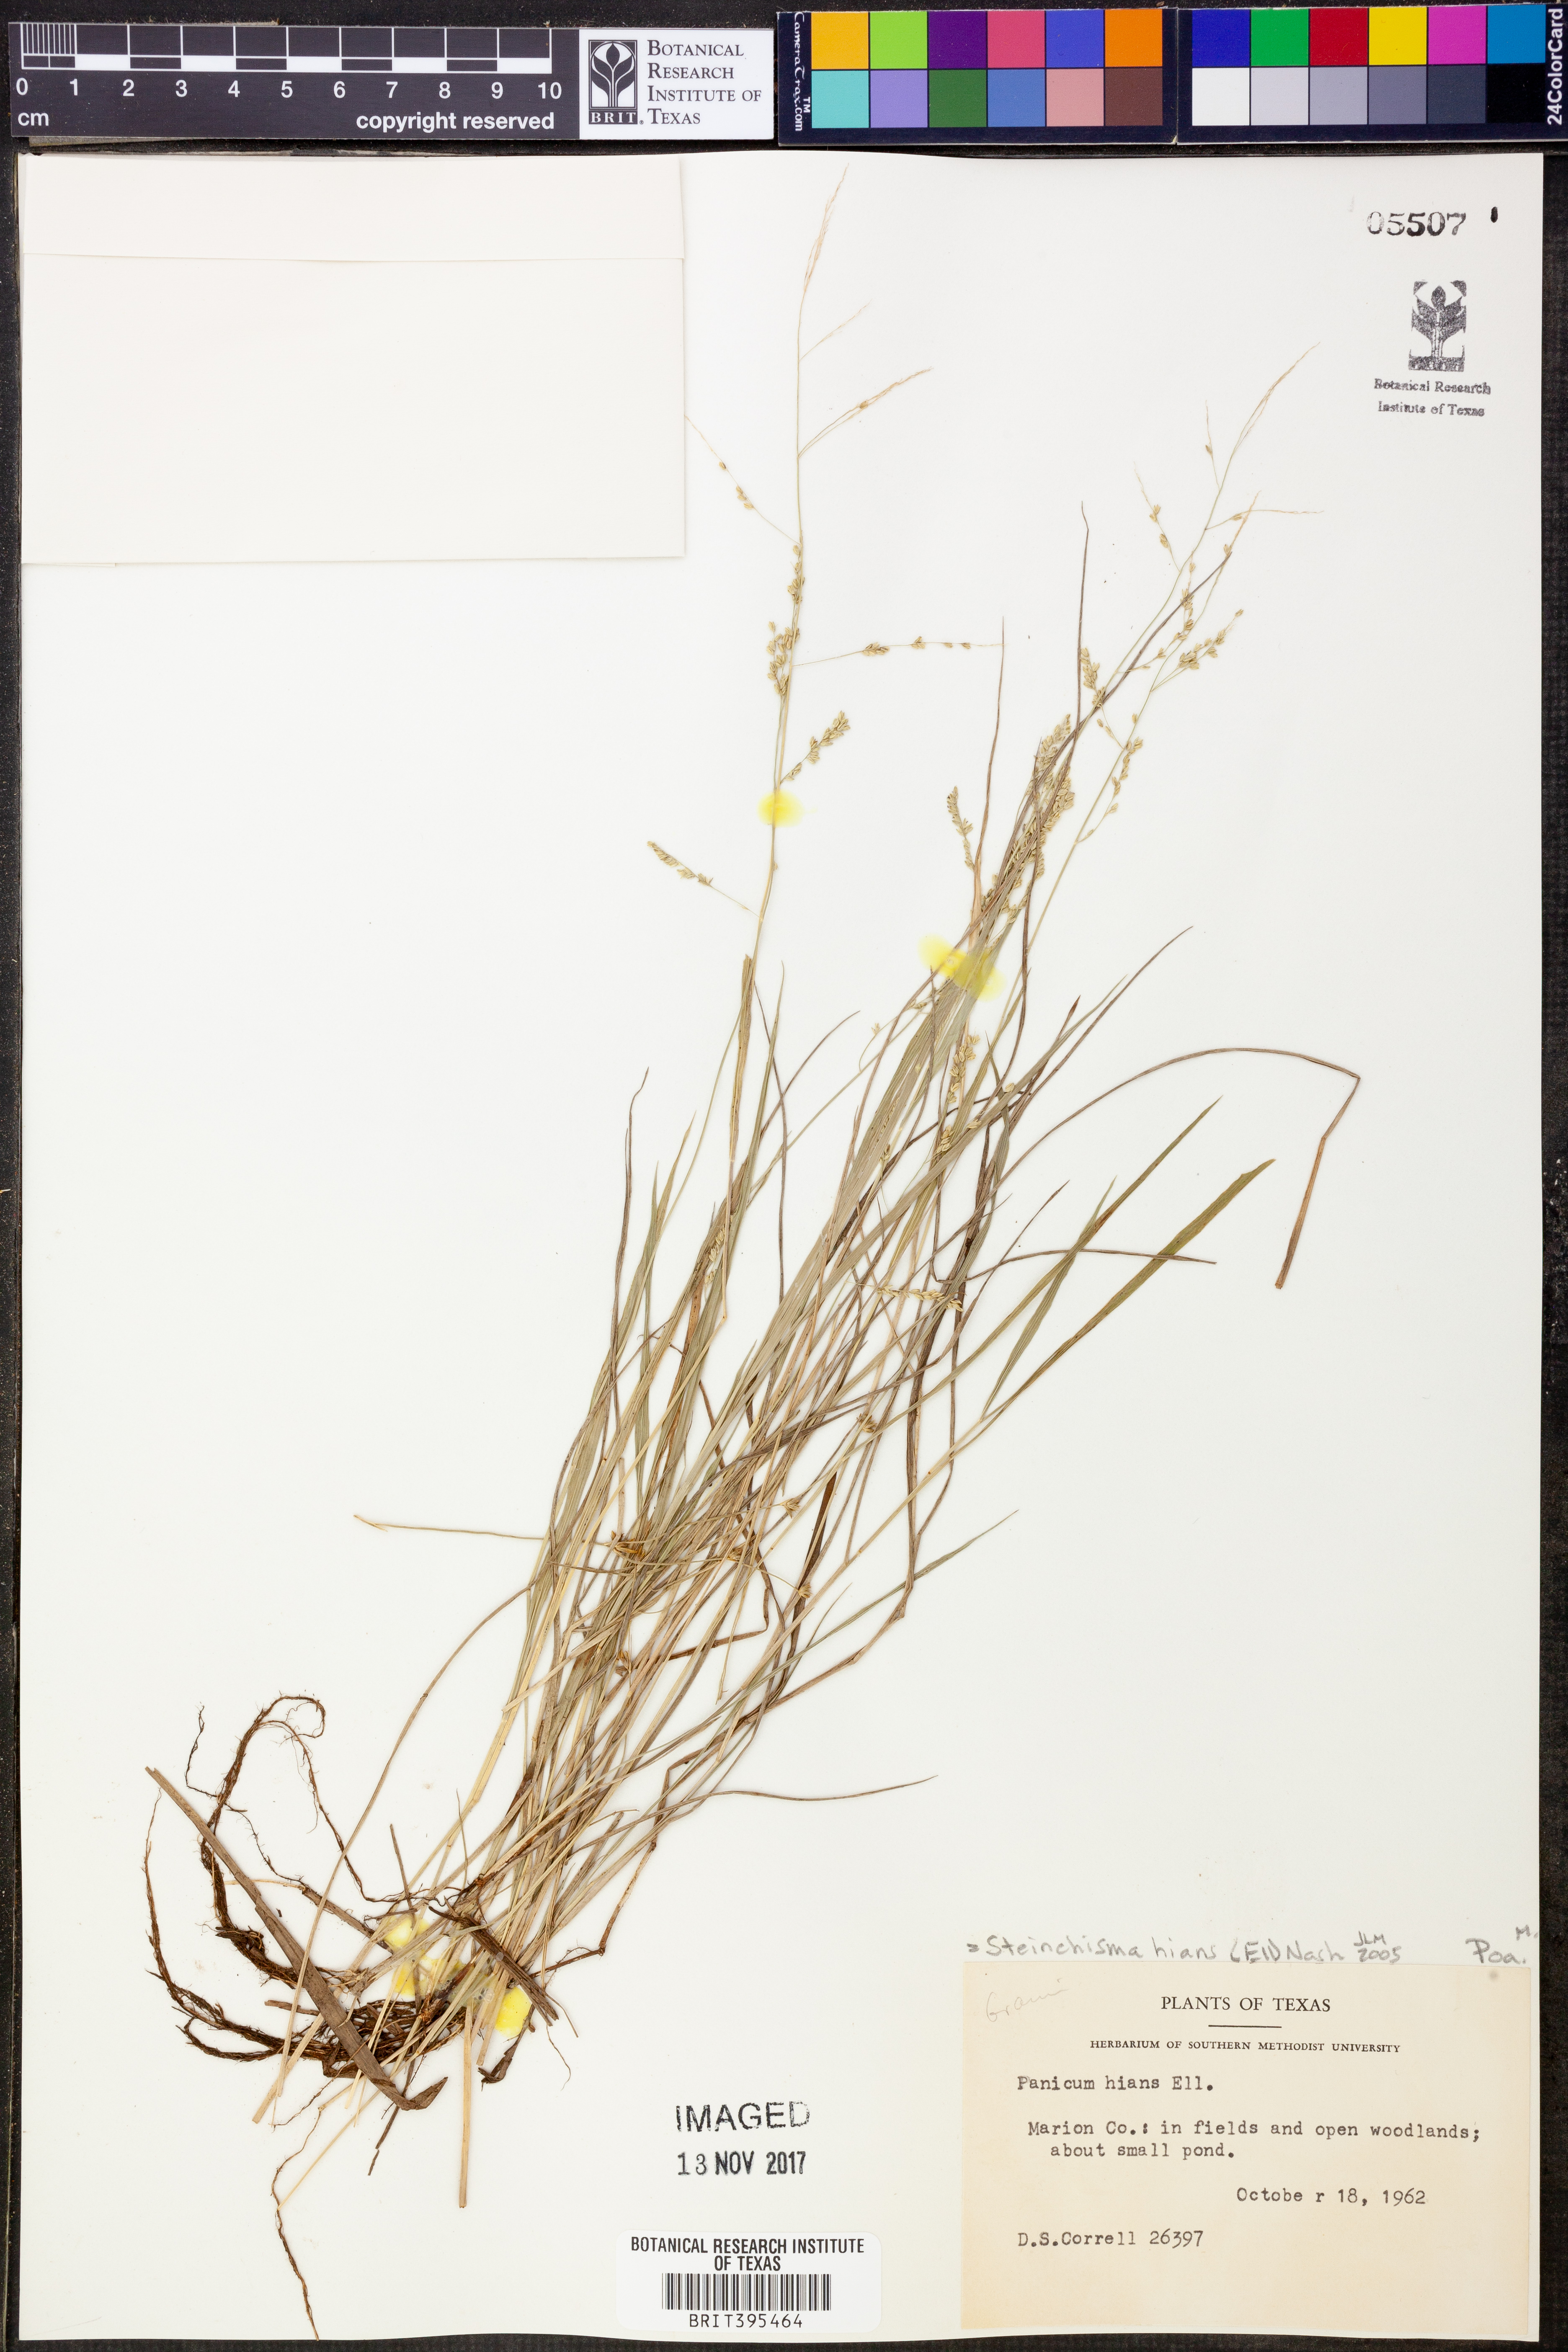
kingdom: Plantae
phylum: Tracheophyta
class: Liliopsida
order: Poales
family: Poaceae
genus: Steinchisma
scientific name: Steinchisma hians
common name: Gaping panic grass
